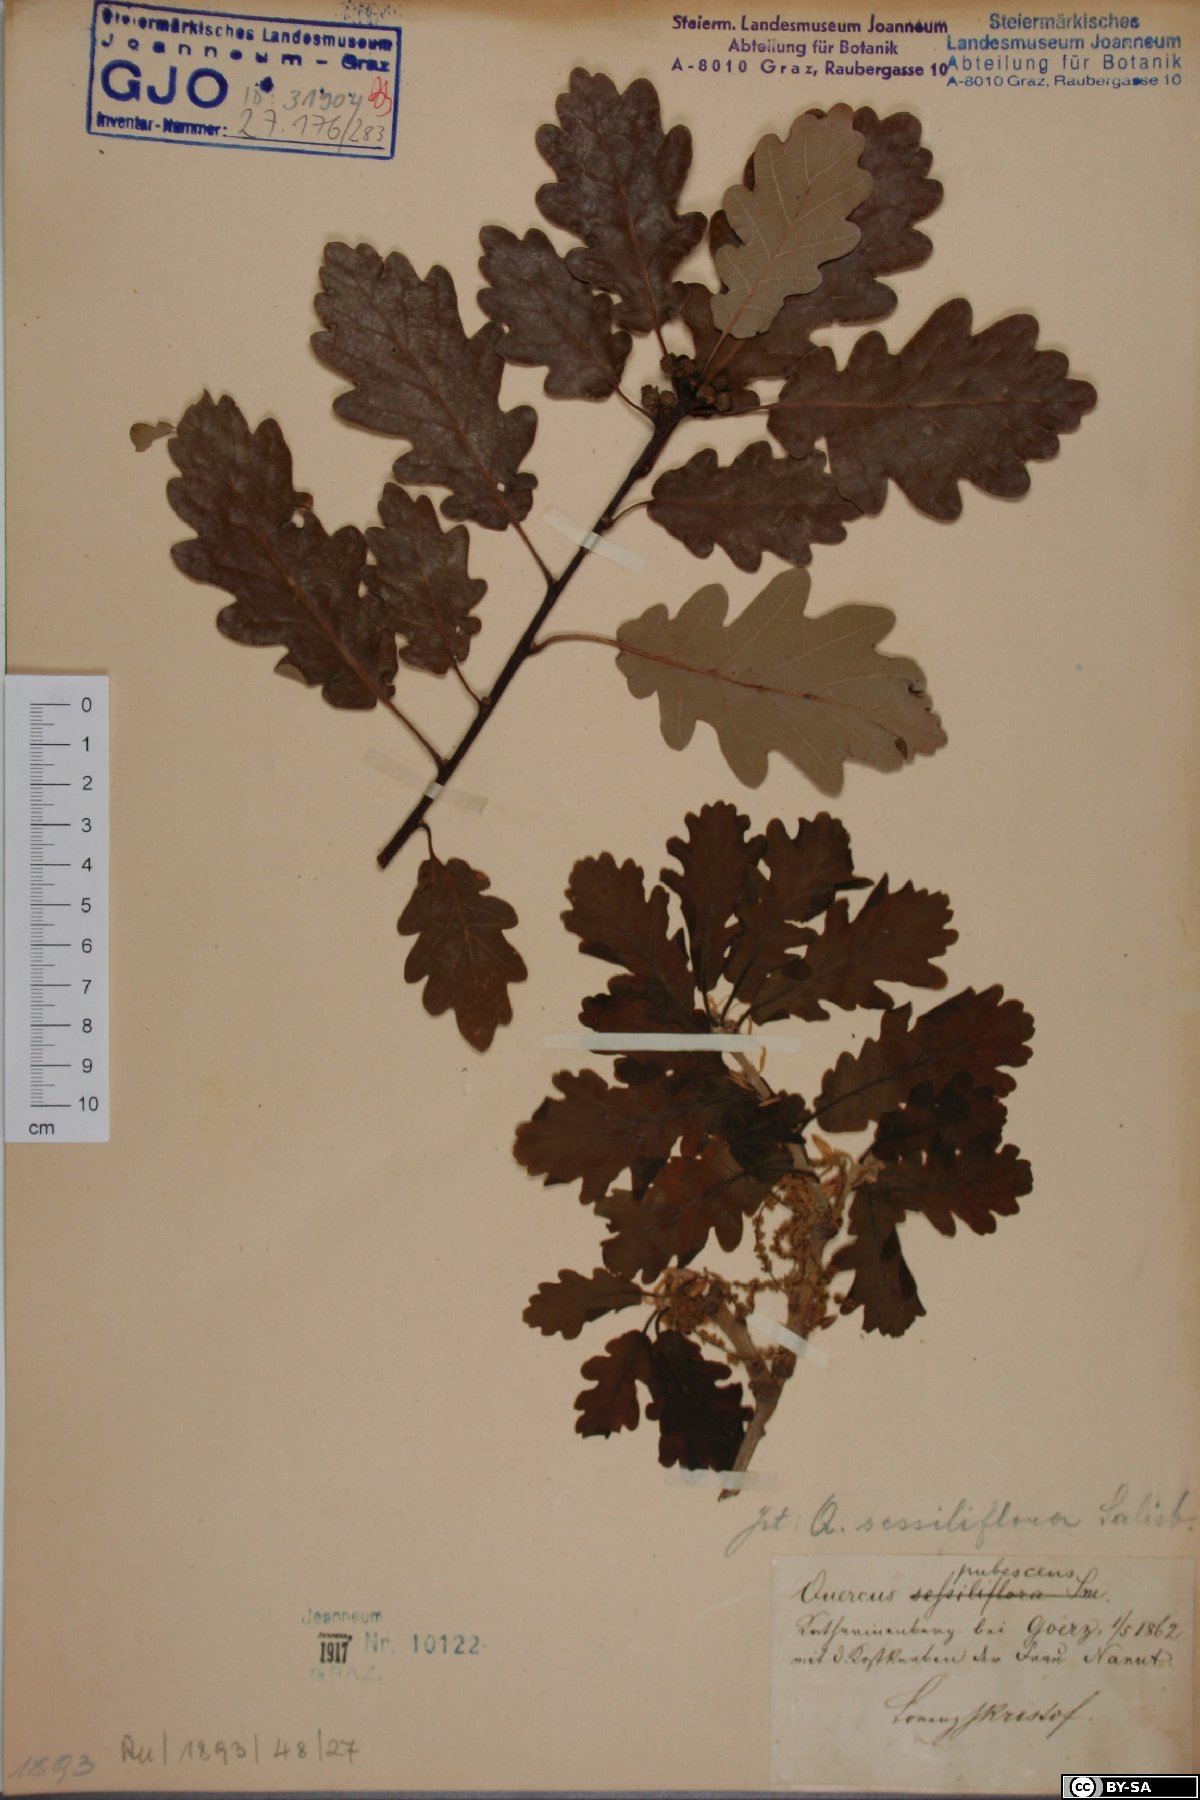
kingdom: Plantae
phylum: Tracheophyta
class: Magnoliopsida
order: Fagales
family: Fagaceae
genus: Quercus
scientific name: Quercus pubescens
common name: Downy oak
